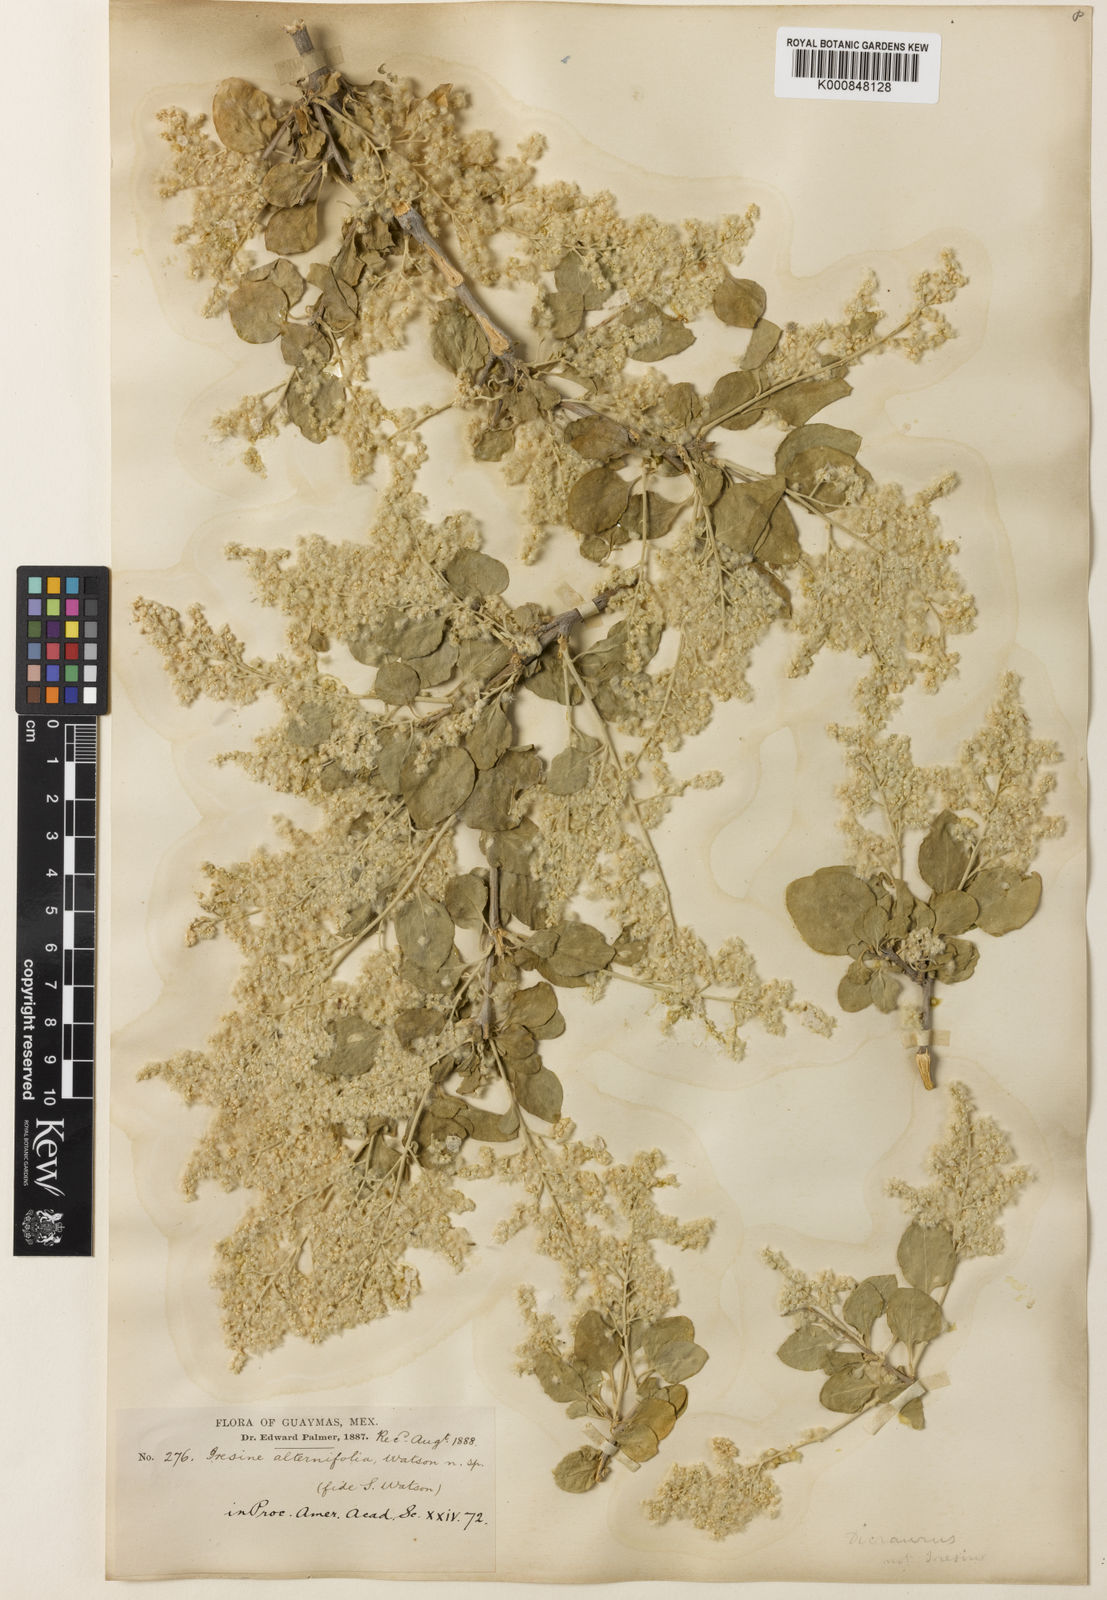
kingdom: Plantae
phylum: Tracheophyta
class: Magnoliopsida
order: Caryophyllales
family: Amaranthaceae
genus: Iresine
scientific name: Iresine alternifolia
